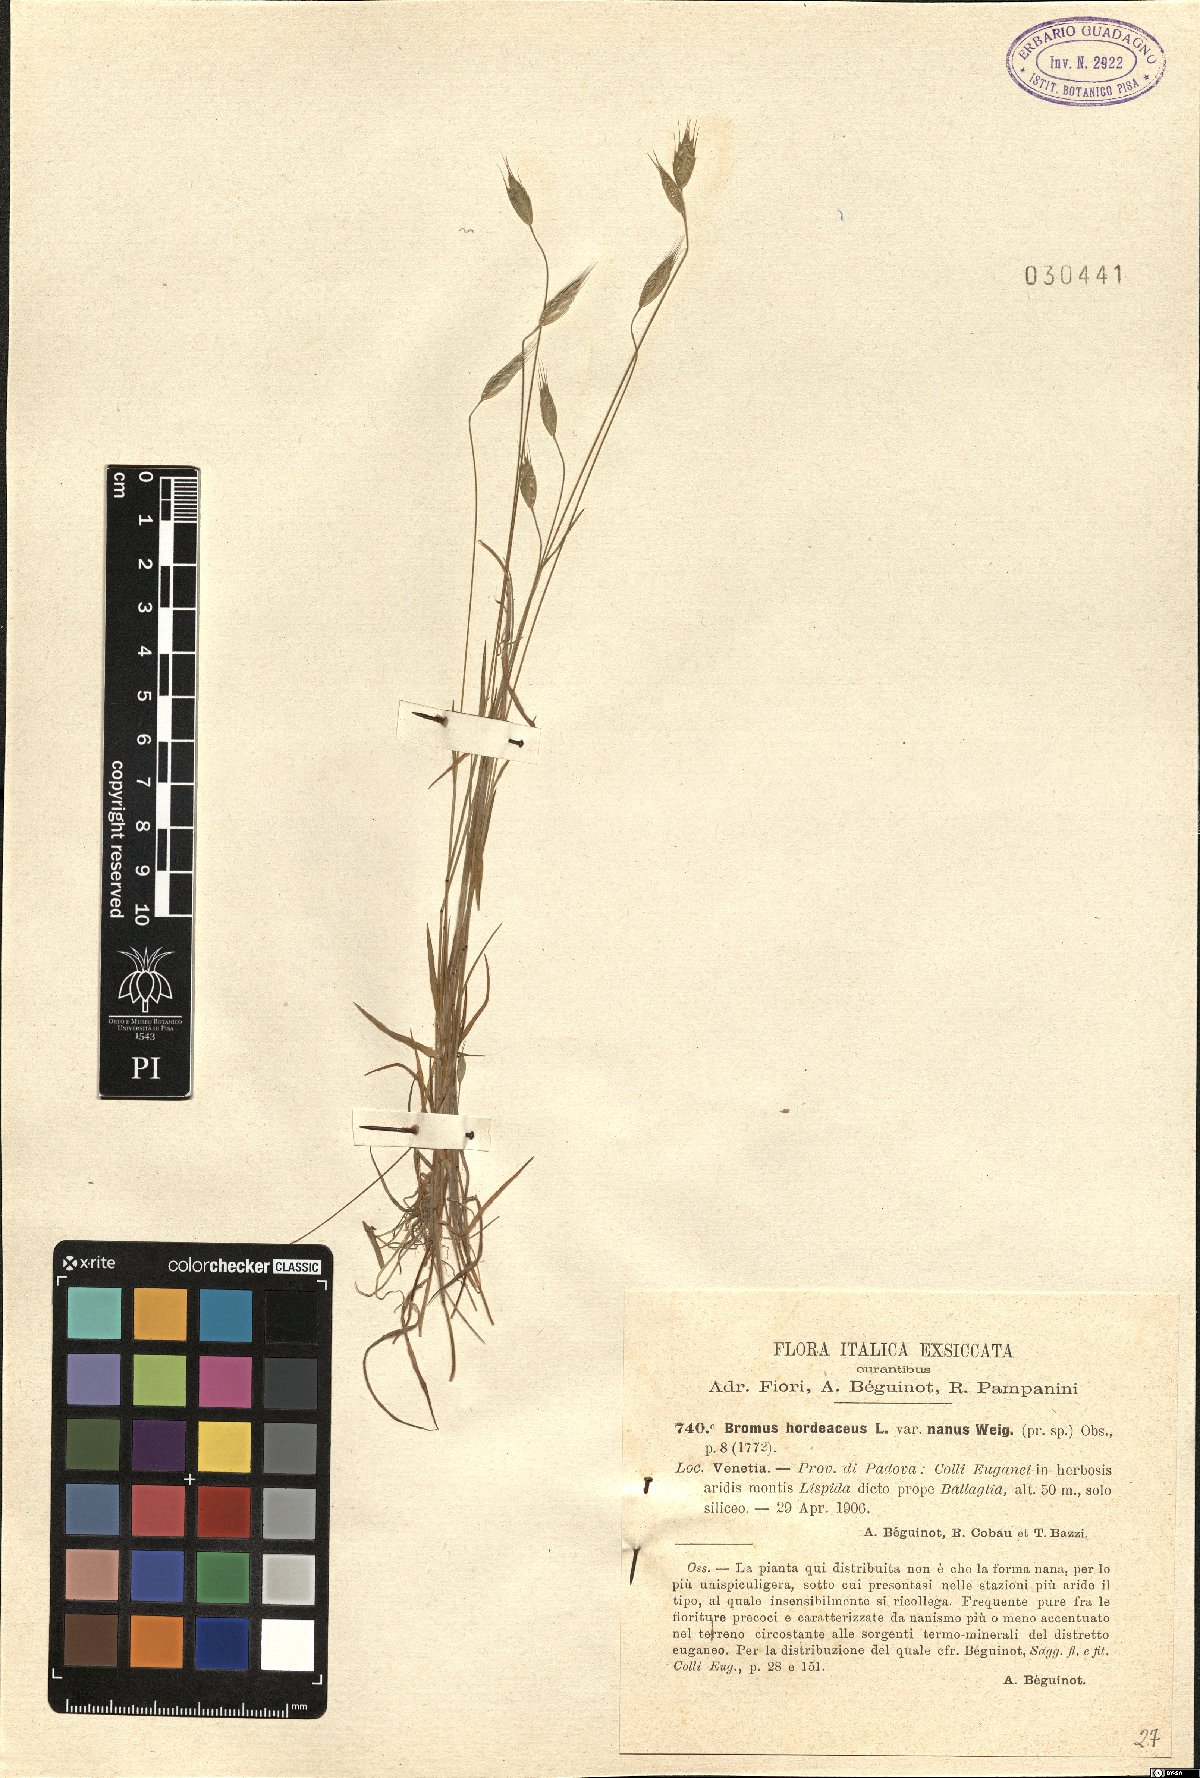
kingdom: Plantae
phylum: Tracheophyta
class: Liliopsida
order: Poales
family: Poaceae
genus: Bromus
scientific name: Bromus hordeaceus
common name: Soft brome
